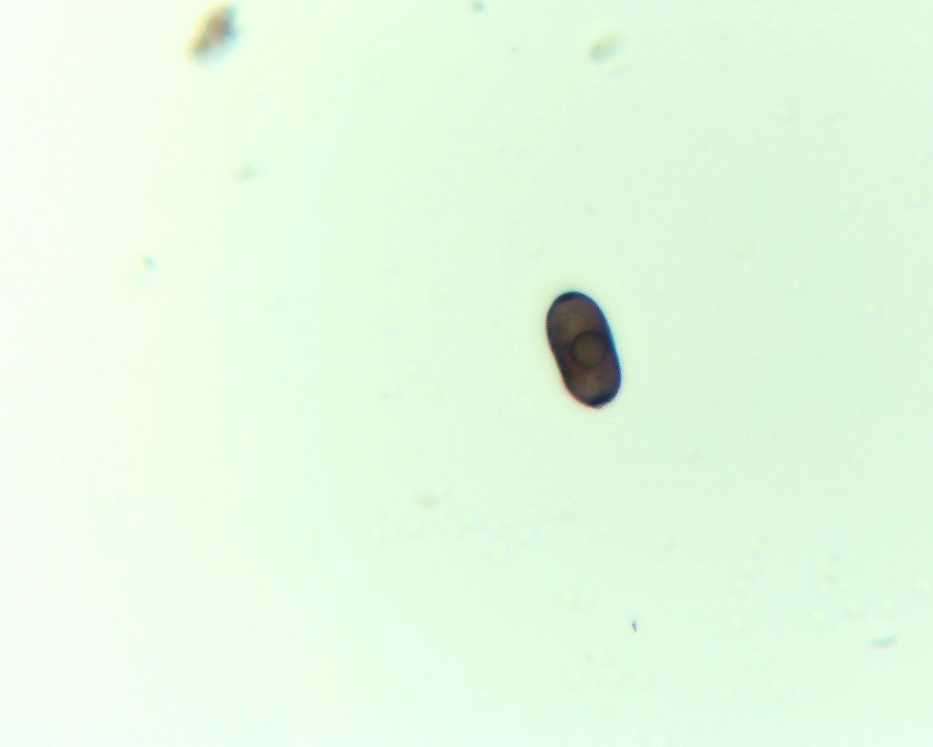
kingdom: Fungi
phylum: Ascomycota
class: Sordariomycetes
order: Xylariales
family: Xylariaceae
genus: Entoleuca
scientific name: Entoleuca mammata
